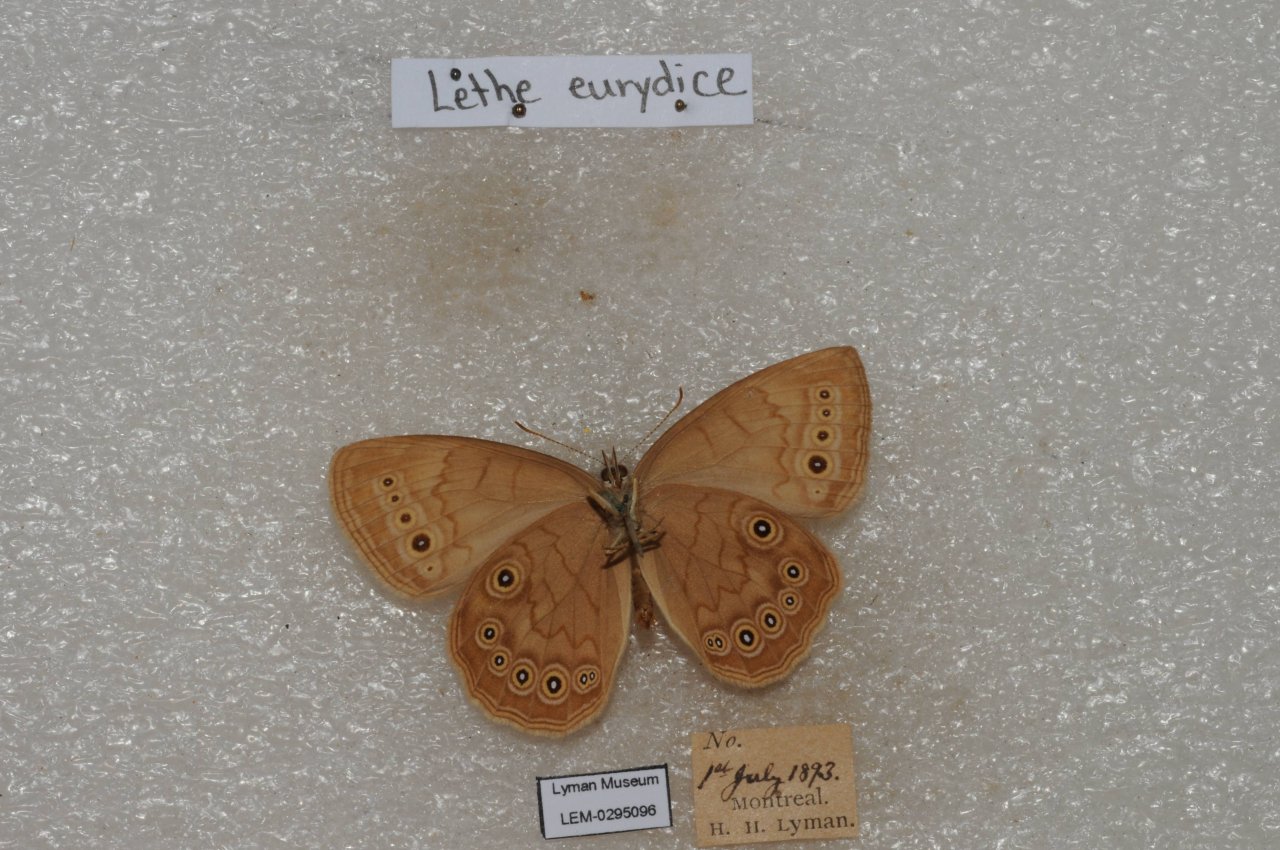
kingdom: Animalia
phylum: Arthropoda
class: Insecta
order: Lepidoptera
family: Nymphalidae
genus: Lethe
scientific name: Lethe eurydice
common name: Eyed Brown
